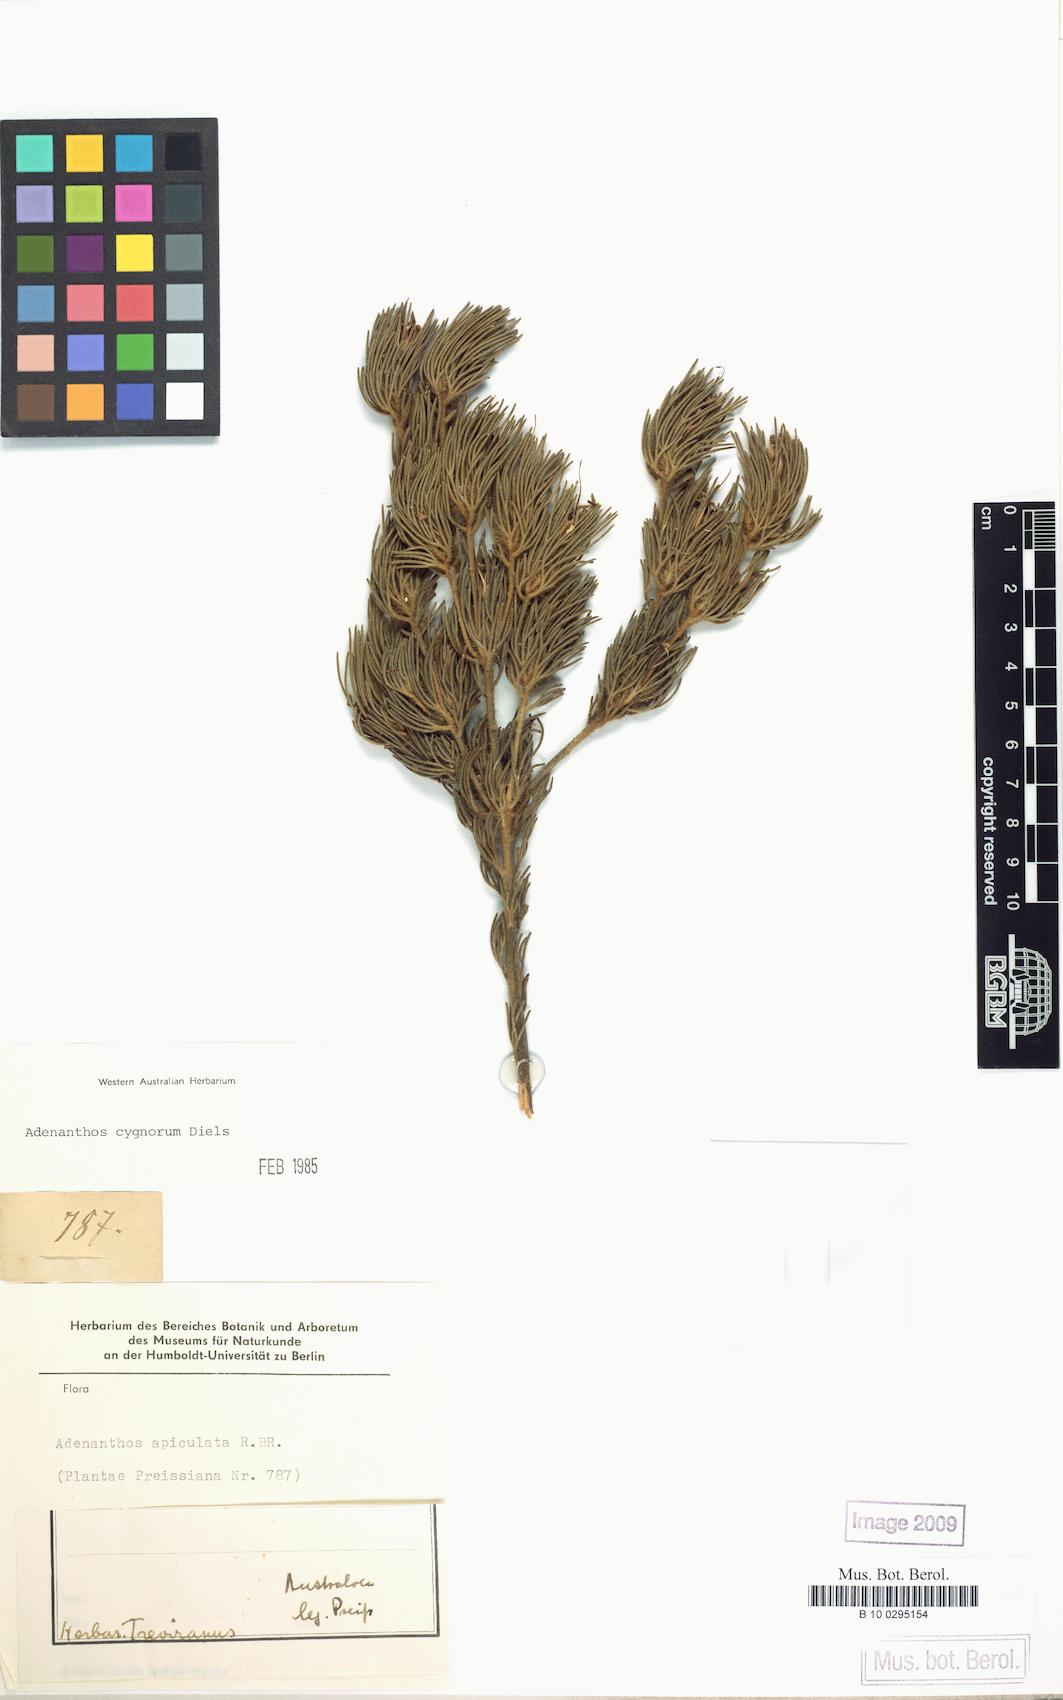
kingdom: Plantae
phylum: Tracheophyta
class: Magnoliopsida
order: Proteales
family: Proteaceae
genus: Adenanthos
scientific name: Adenanthos cygnorum
